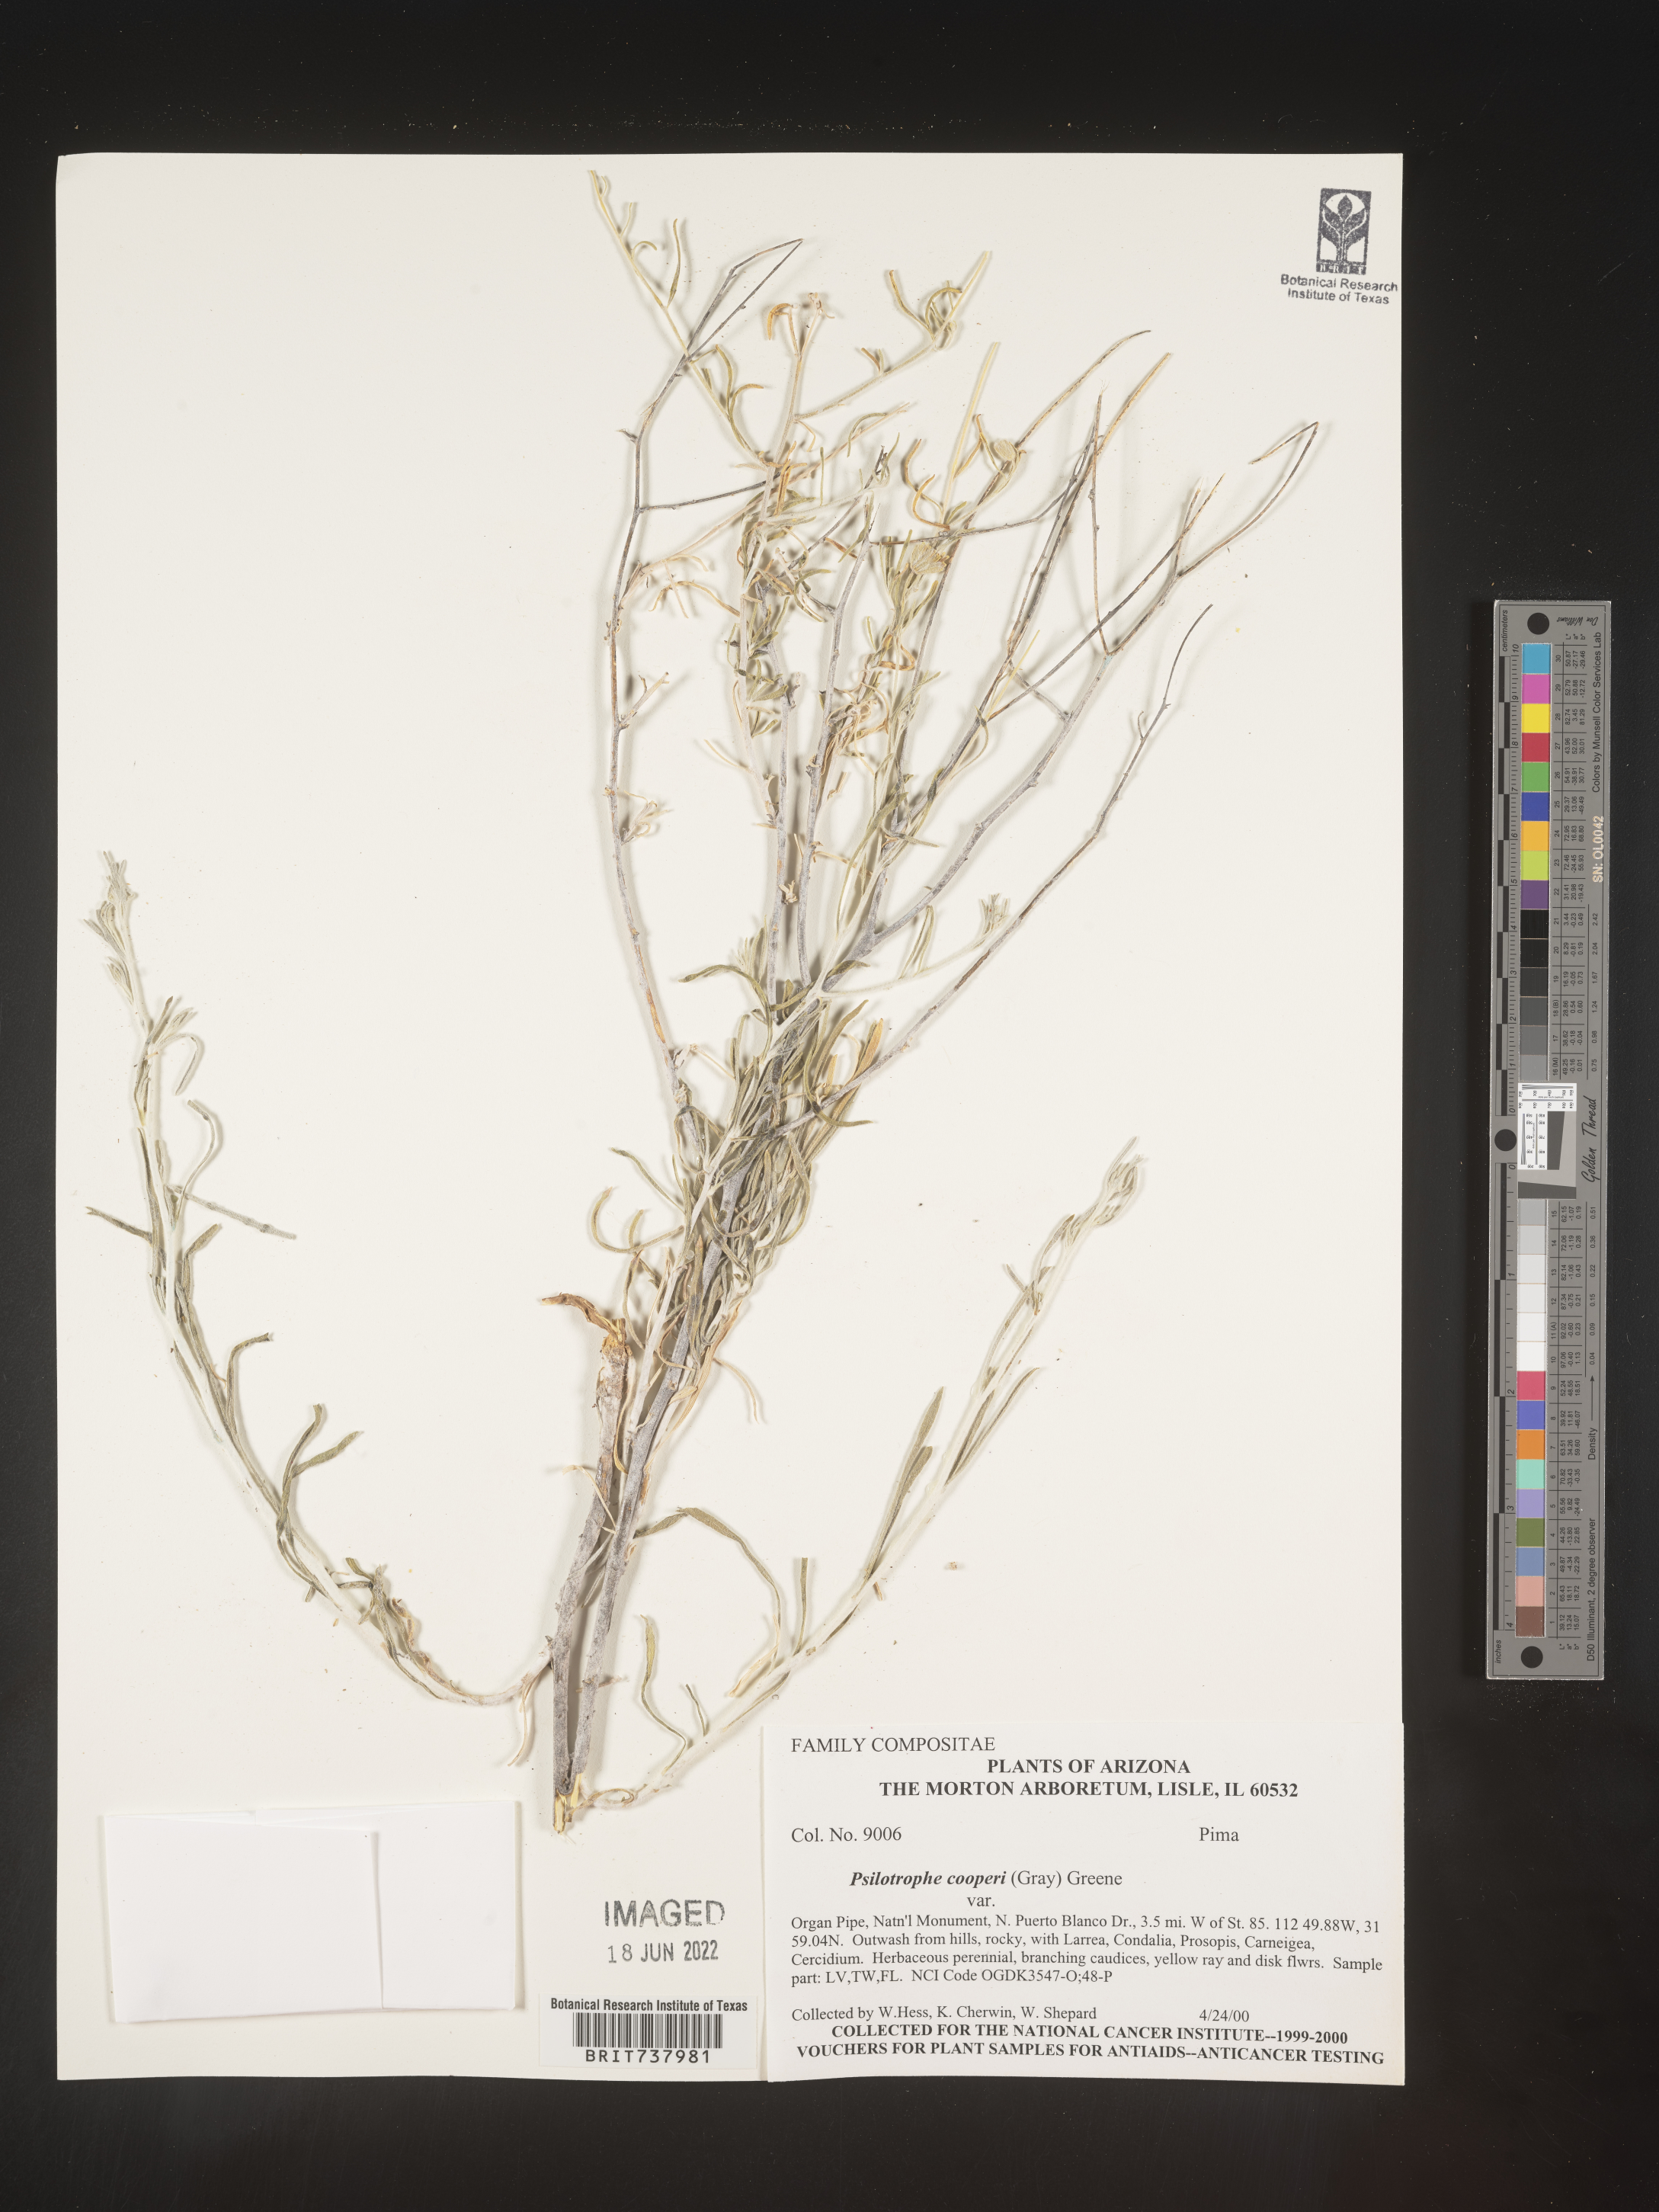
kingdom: Plantae
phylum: Tracheophyta
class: Magnoliopsida
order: Asterales
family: Asteraceae
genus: Psilostrophe
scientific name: Psilostrophe
